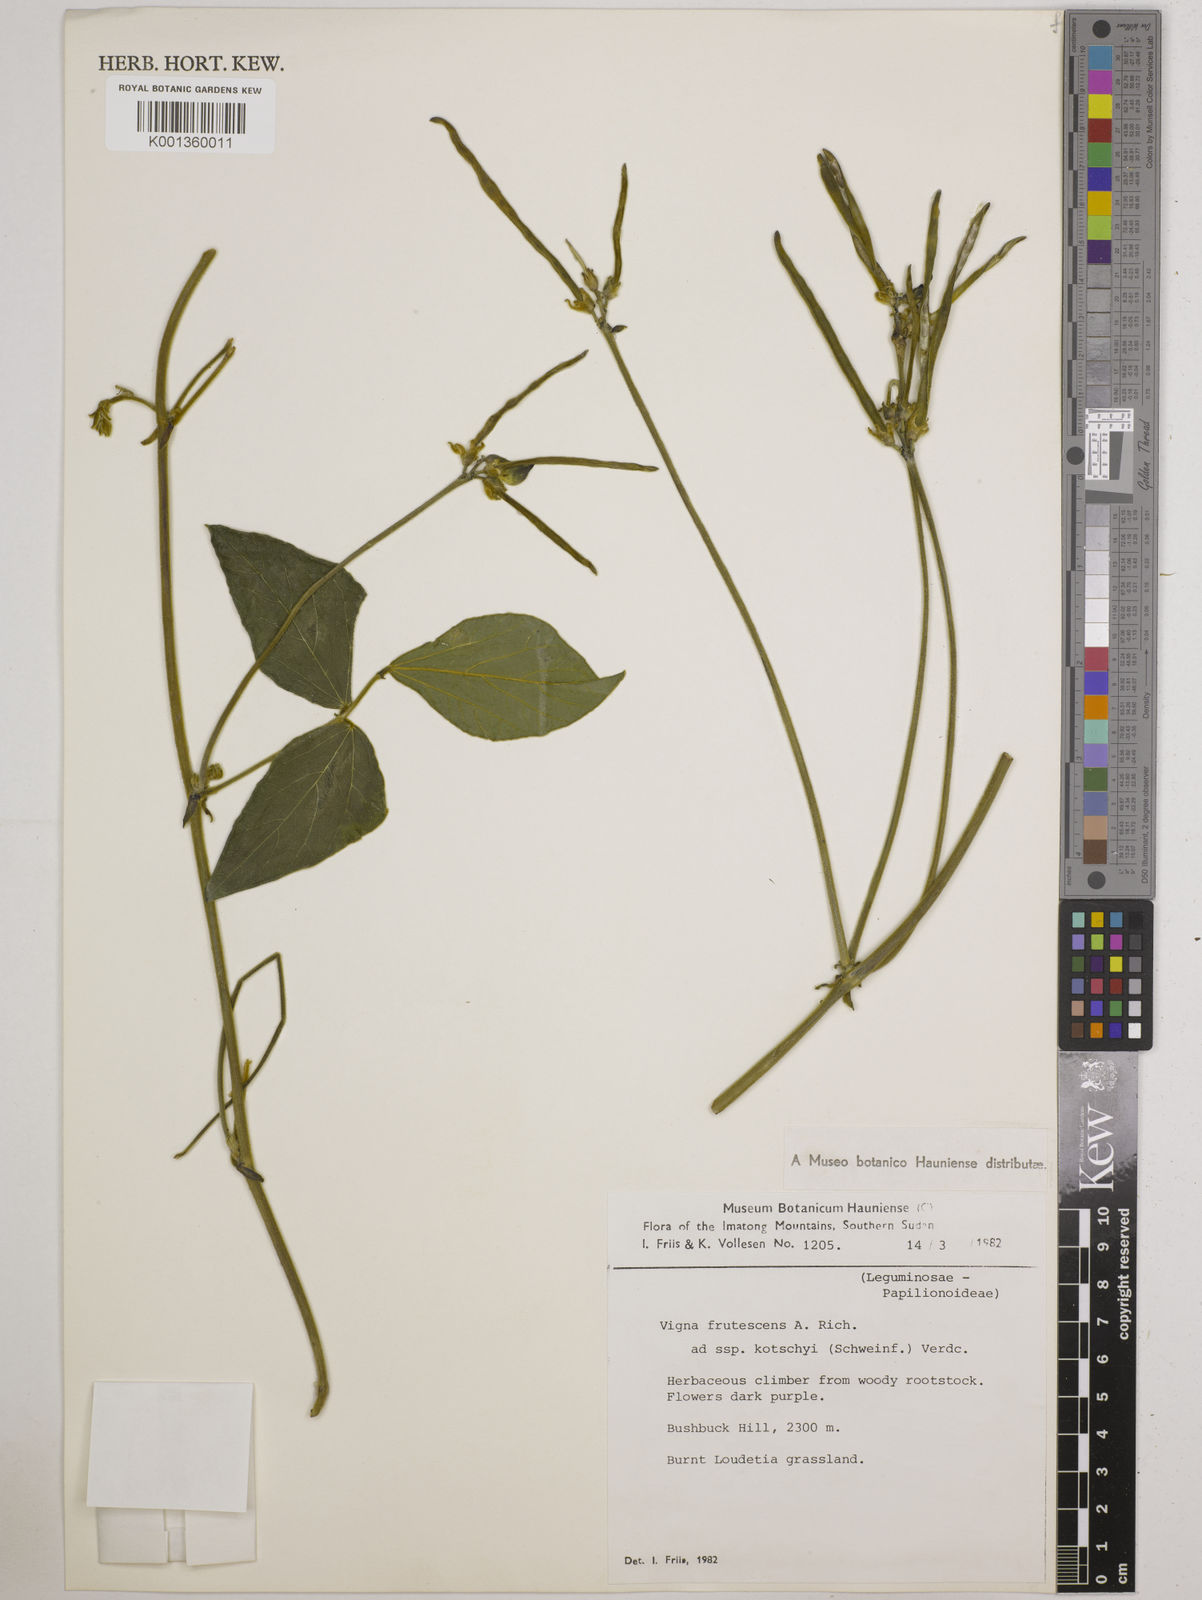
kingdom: Plantae
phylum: Tracheophyta
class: Magnoliopsida
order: Fabales
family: Fabaceae
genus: Vigna
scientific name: Vigna
